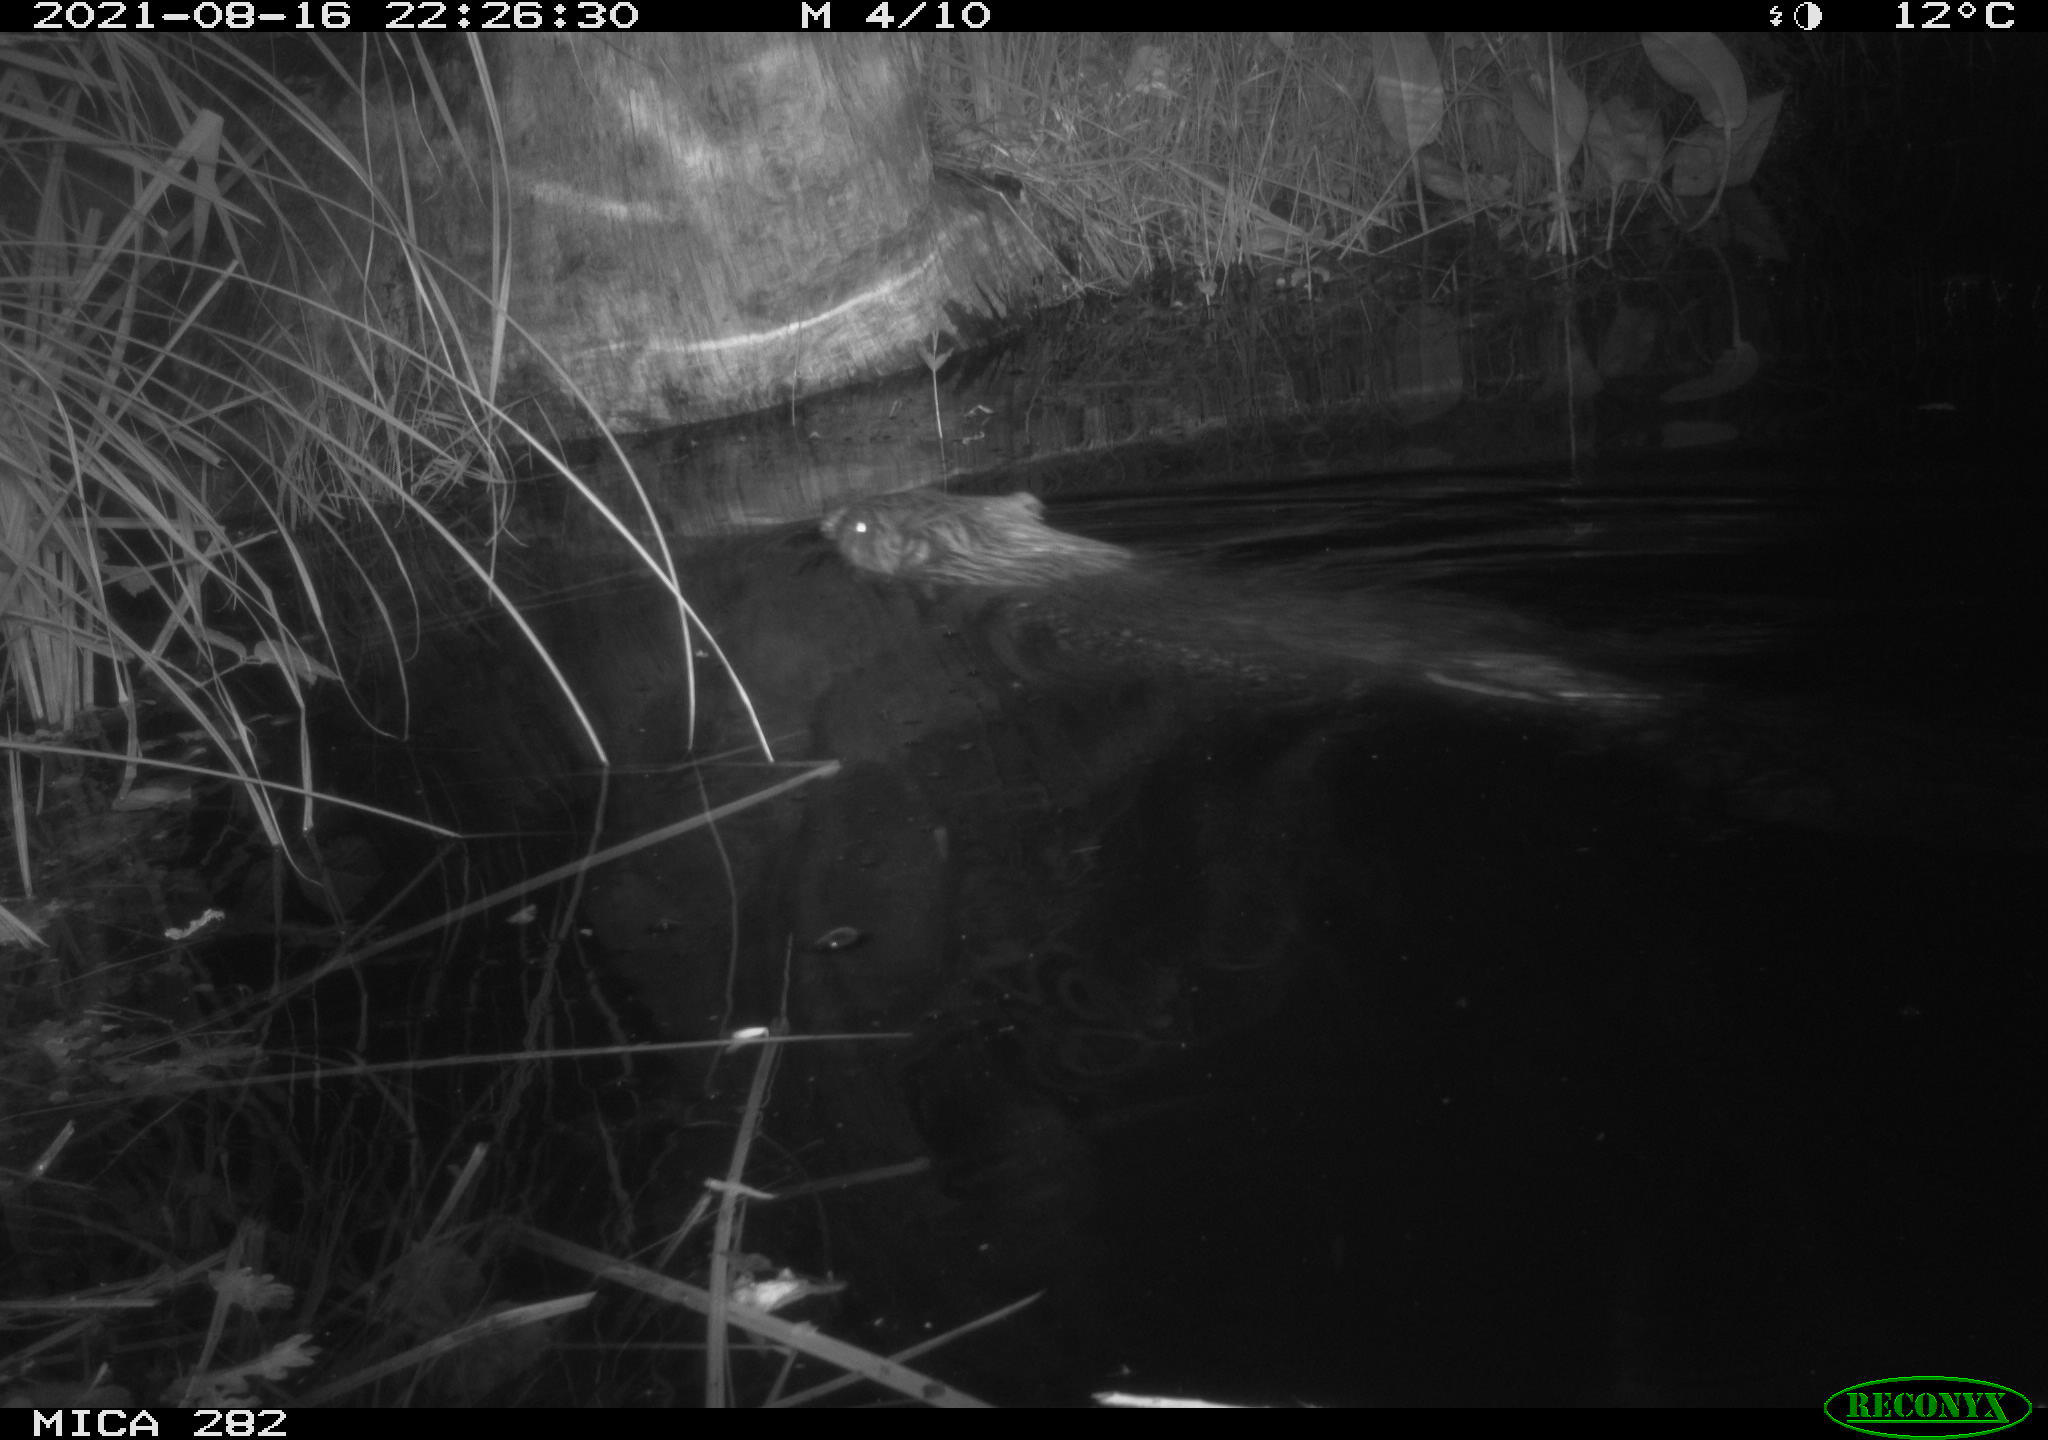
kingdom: Animalia
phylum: Chordata
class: Mammalia
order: Rodentia
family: Castoridae
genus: Castor
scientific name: Castor fiber
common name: Eurasian beaver
